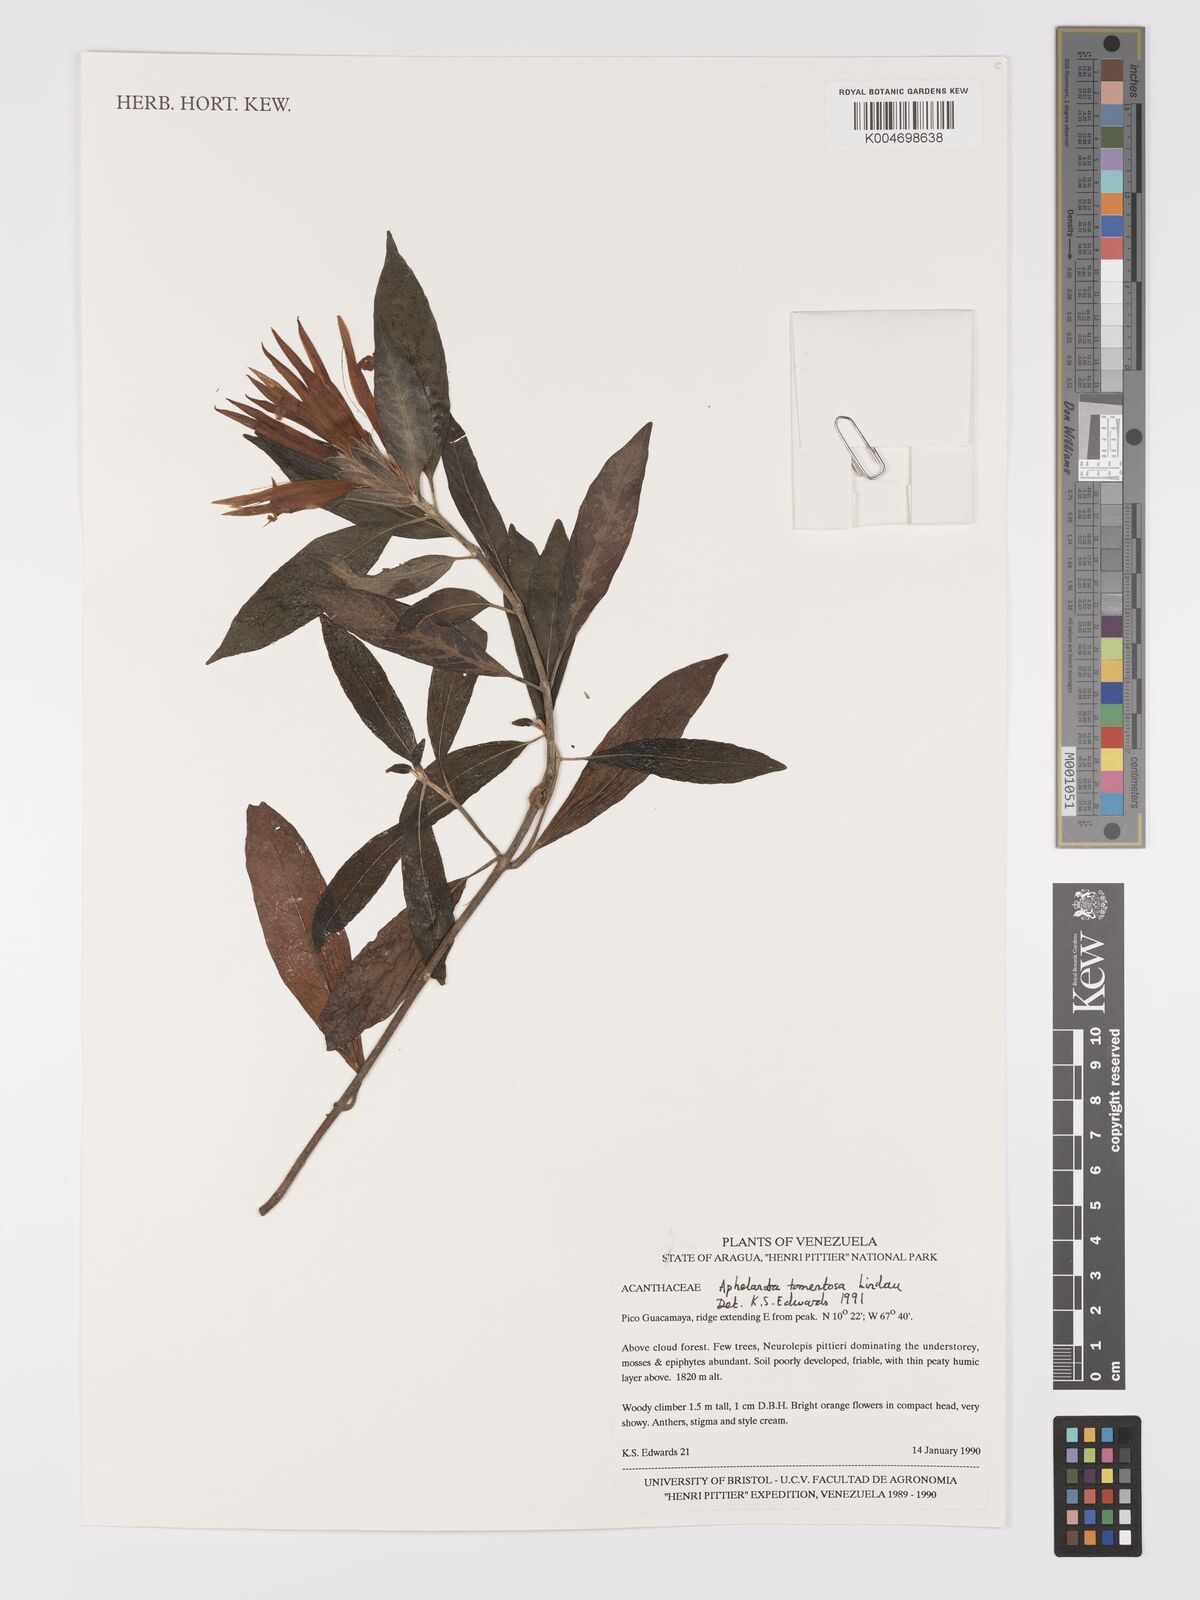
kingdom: Plantae
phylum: Tracheophyta
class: Magnoliopsida
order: Lamiales
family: Acanthaceae
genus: Aphelandra
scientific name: Aphelandra tomentosa
